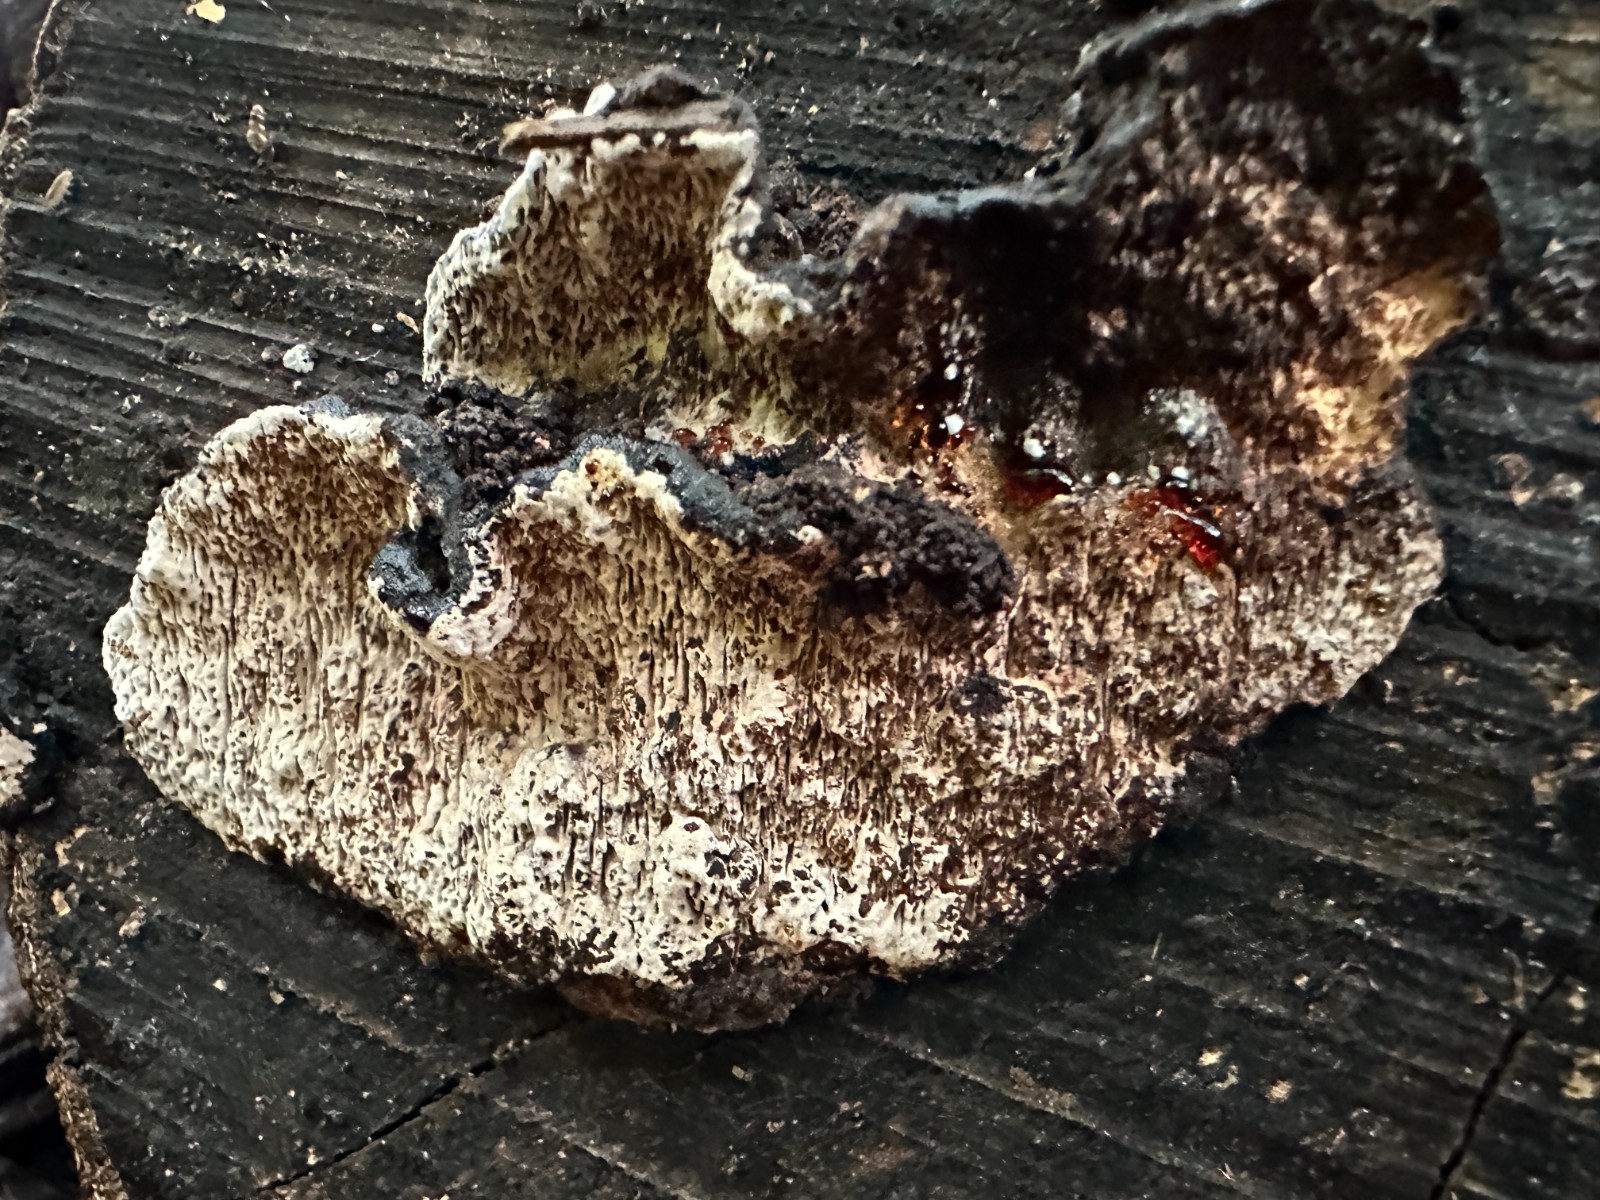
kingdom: Fungi
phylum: Basidiomycota
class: Agaricomycetes
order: Polyporales
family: Polyporaceae
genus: Podofomes
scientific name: Podofomes mollis
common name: blød begporesvamp
